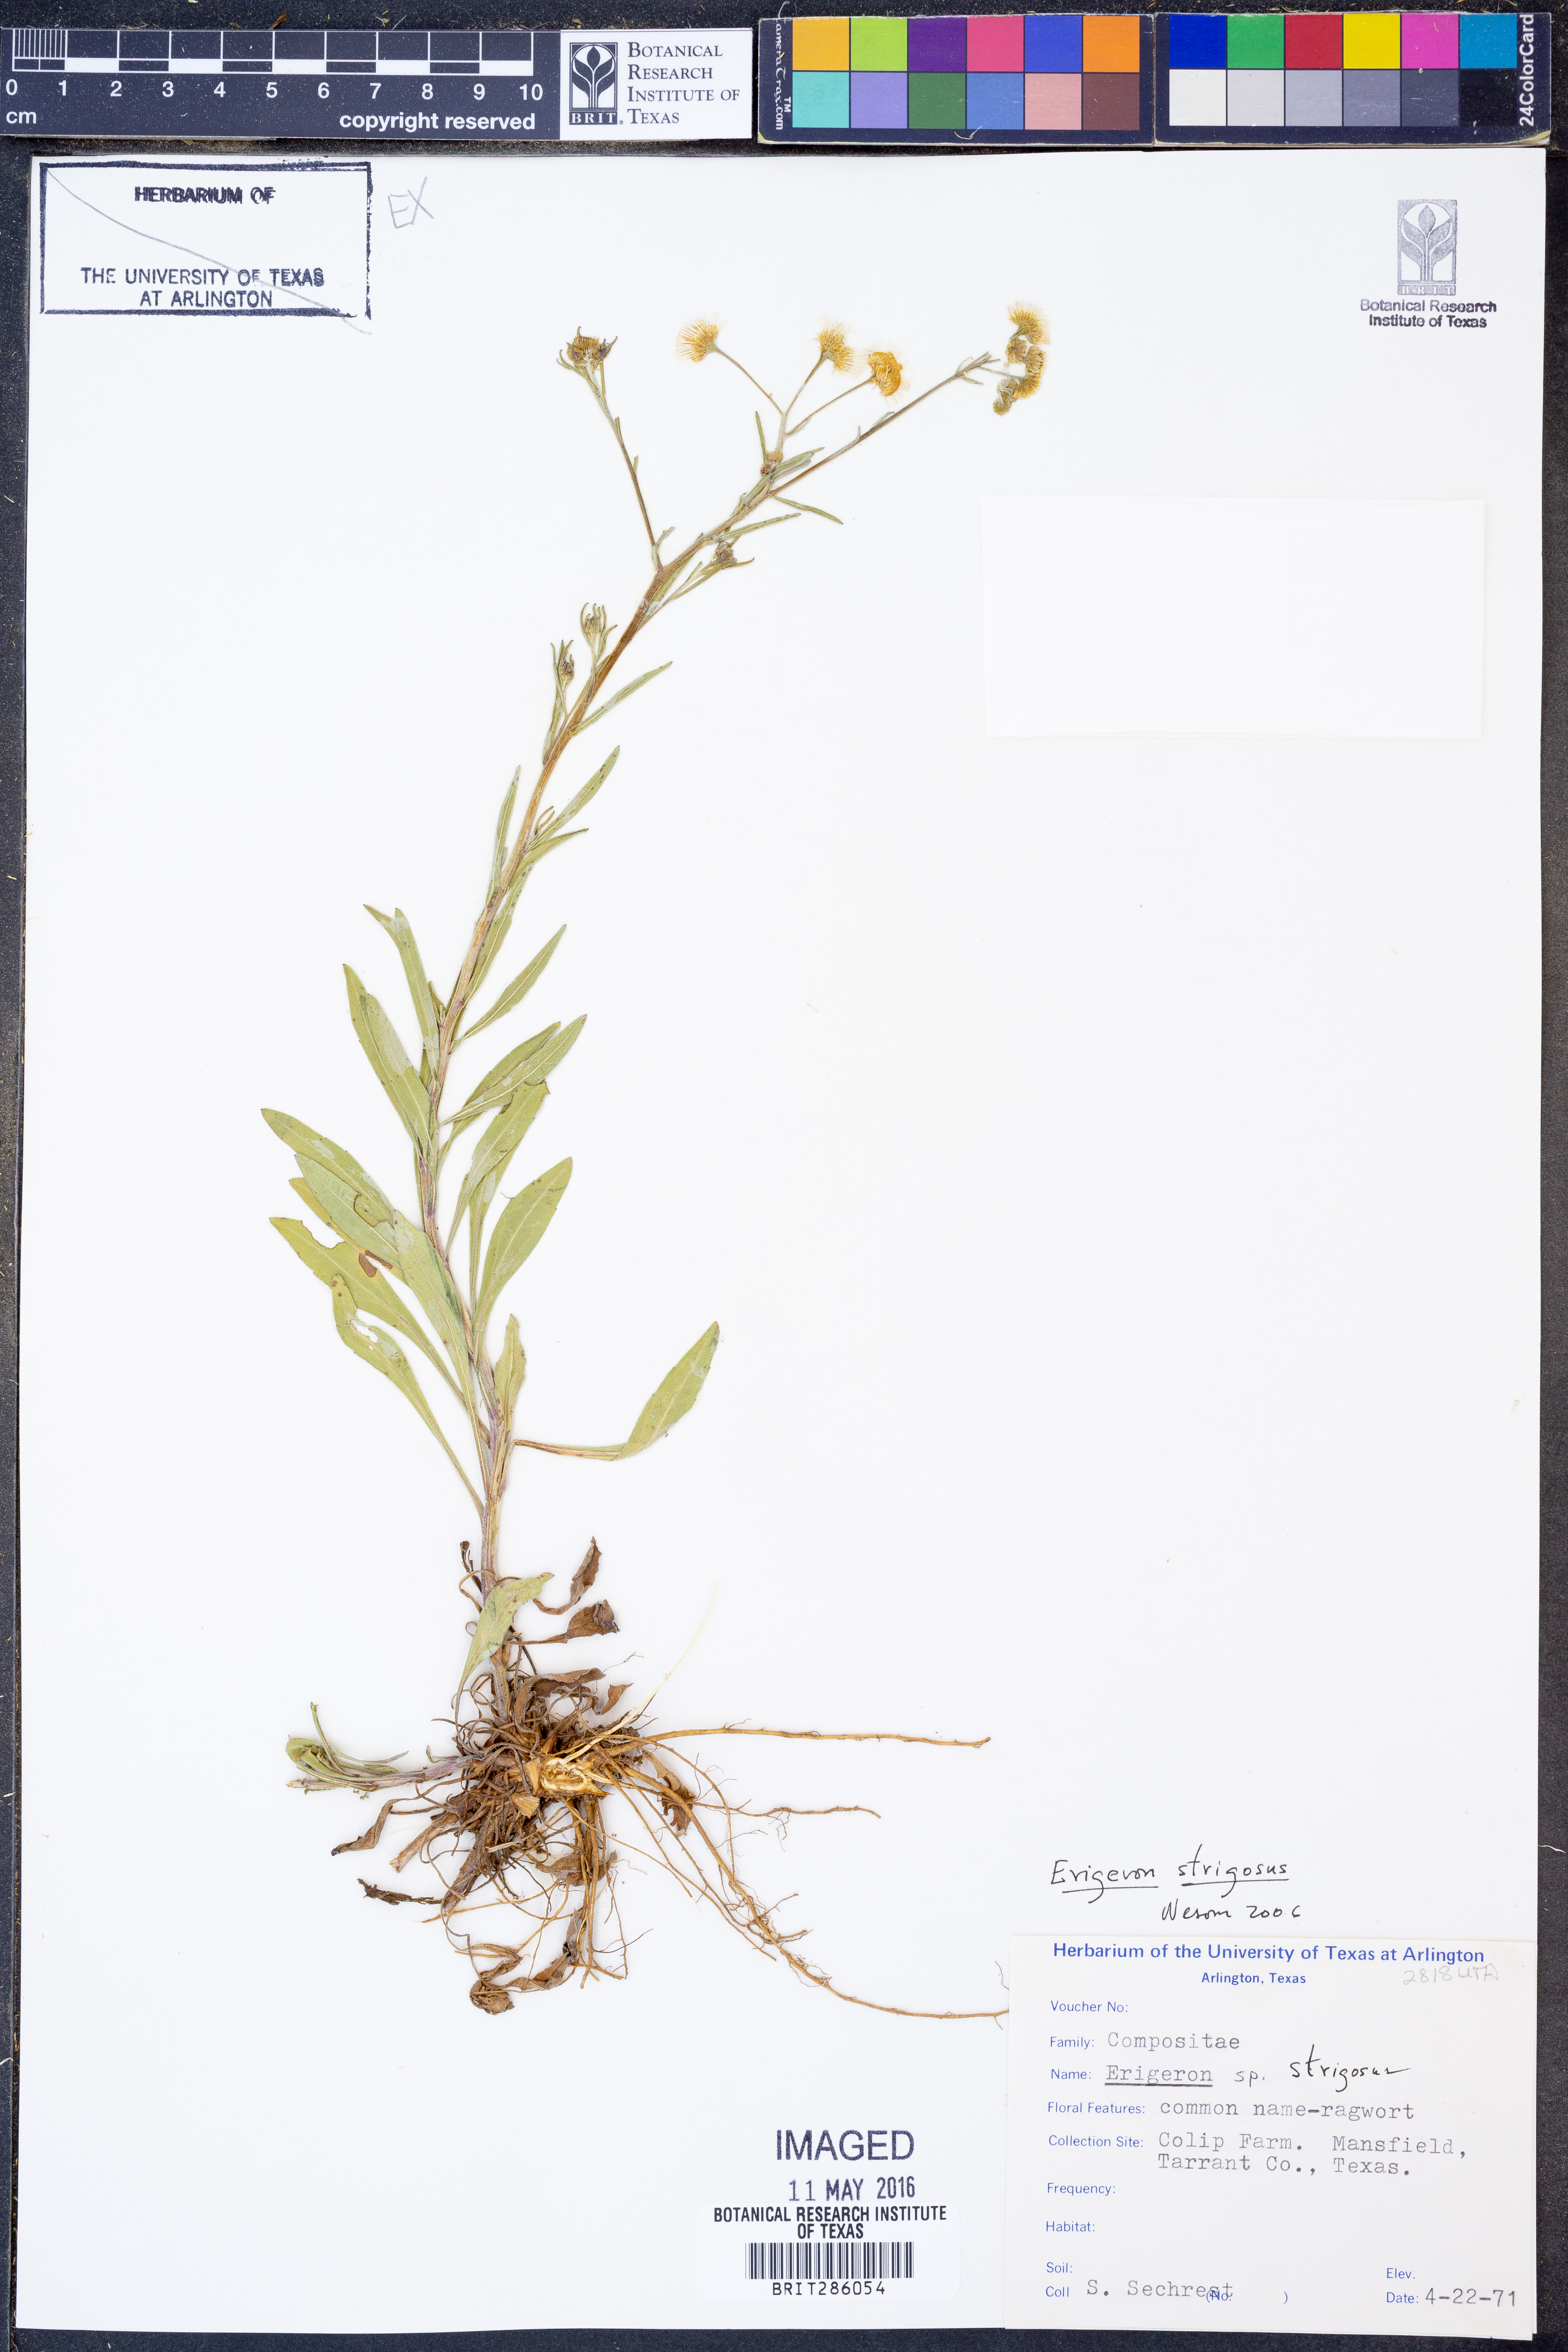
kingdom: Plantae
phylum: Tracheophyta
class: Magnoliopsida
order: Asterales
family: Asteraceae
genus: Erigeron
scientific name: Erigeron strigosus
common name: Common eastern fleabane
